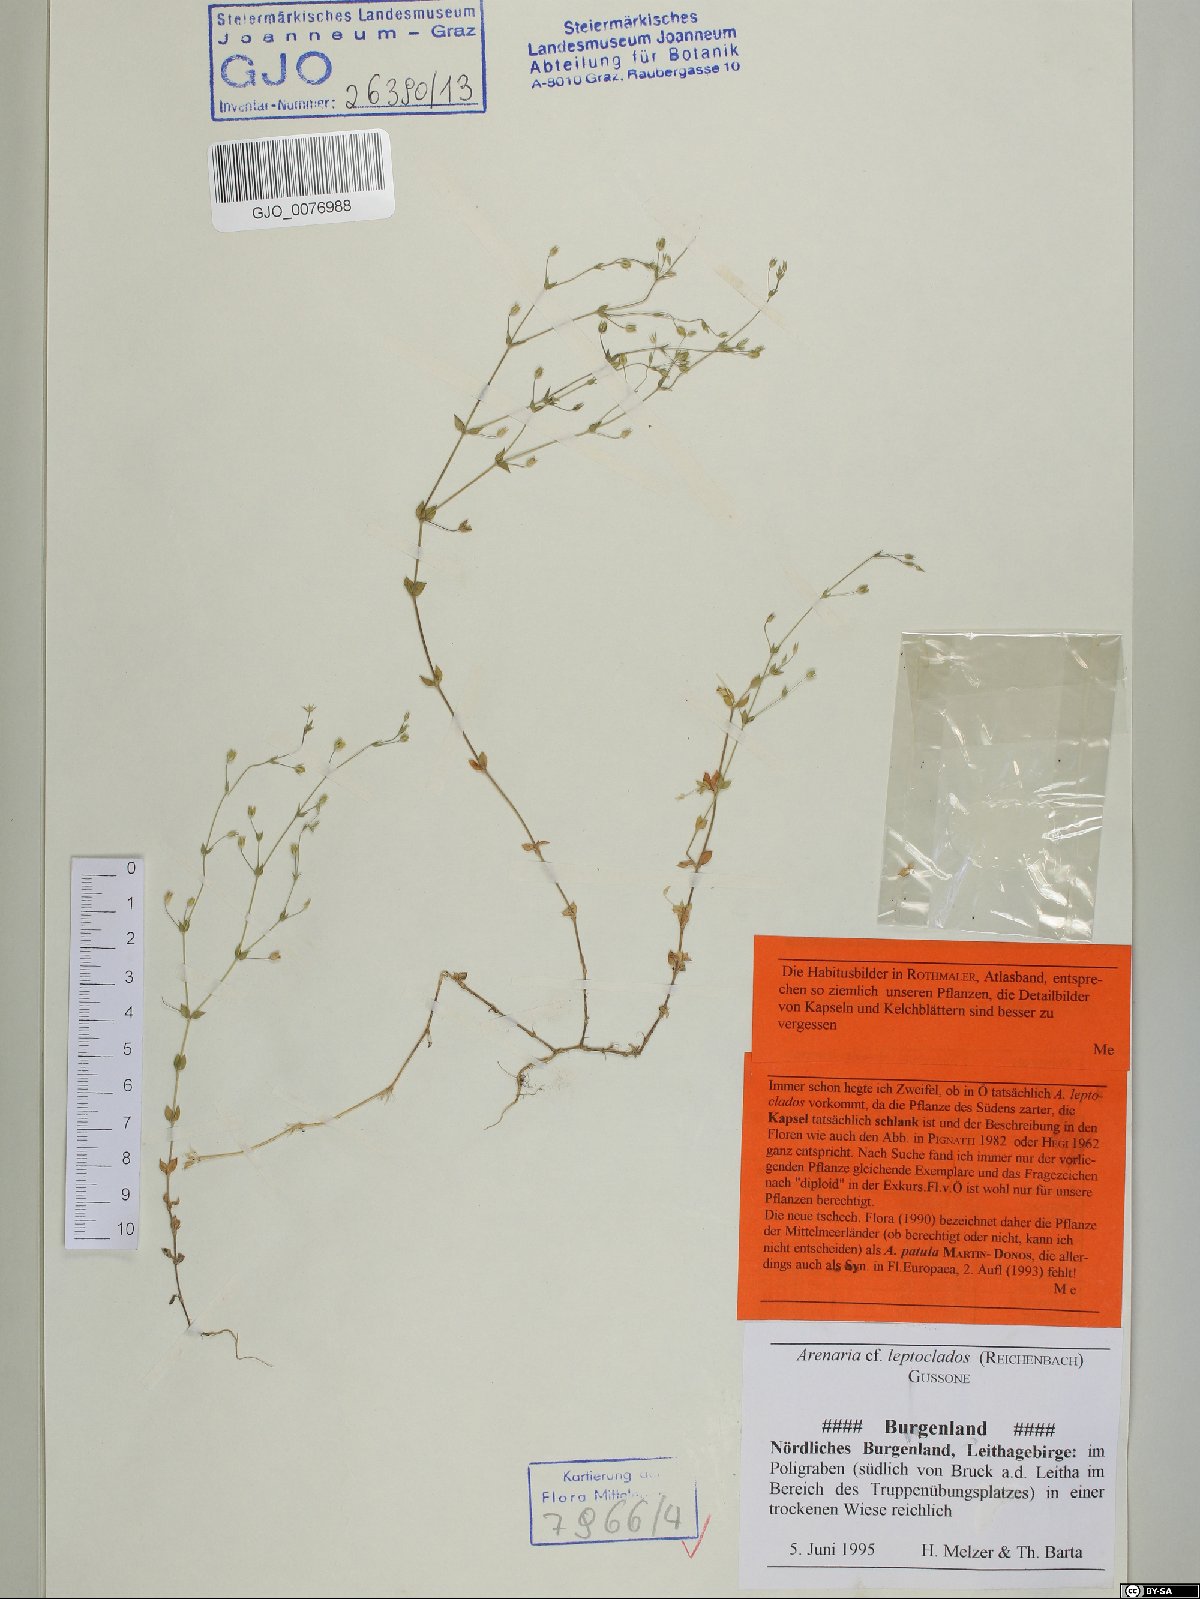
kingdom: Plantae
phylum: Tracheophyta
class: Magnoliopsida
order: Caryophyllales
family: Caryophyllaceae
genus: Arenaria
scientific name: Arenaria leptoclados
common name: Thyme-leaved sandwort
